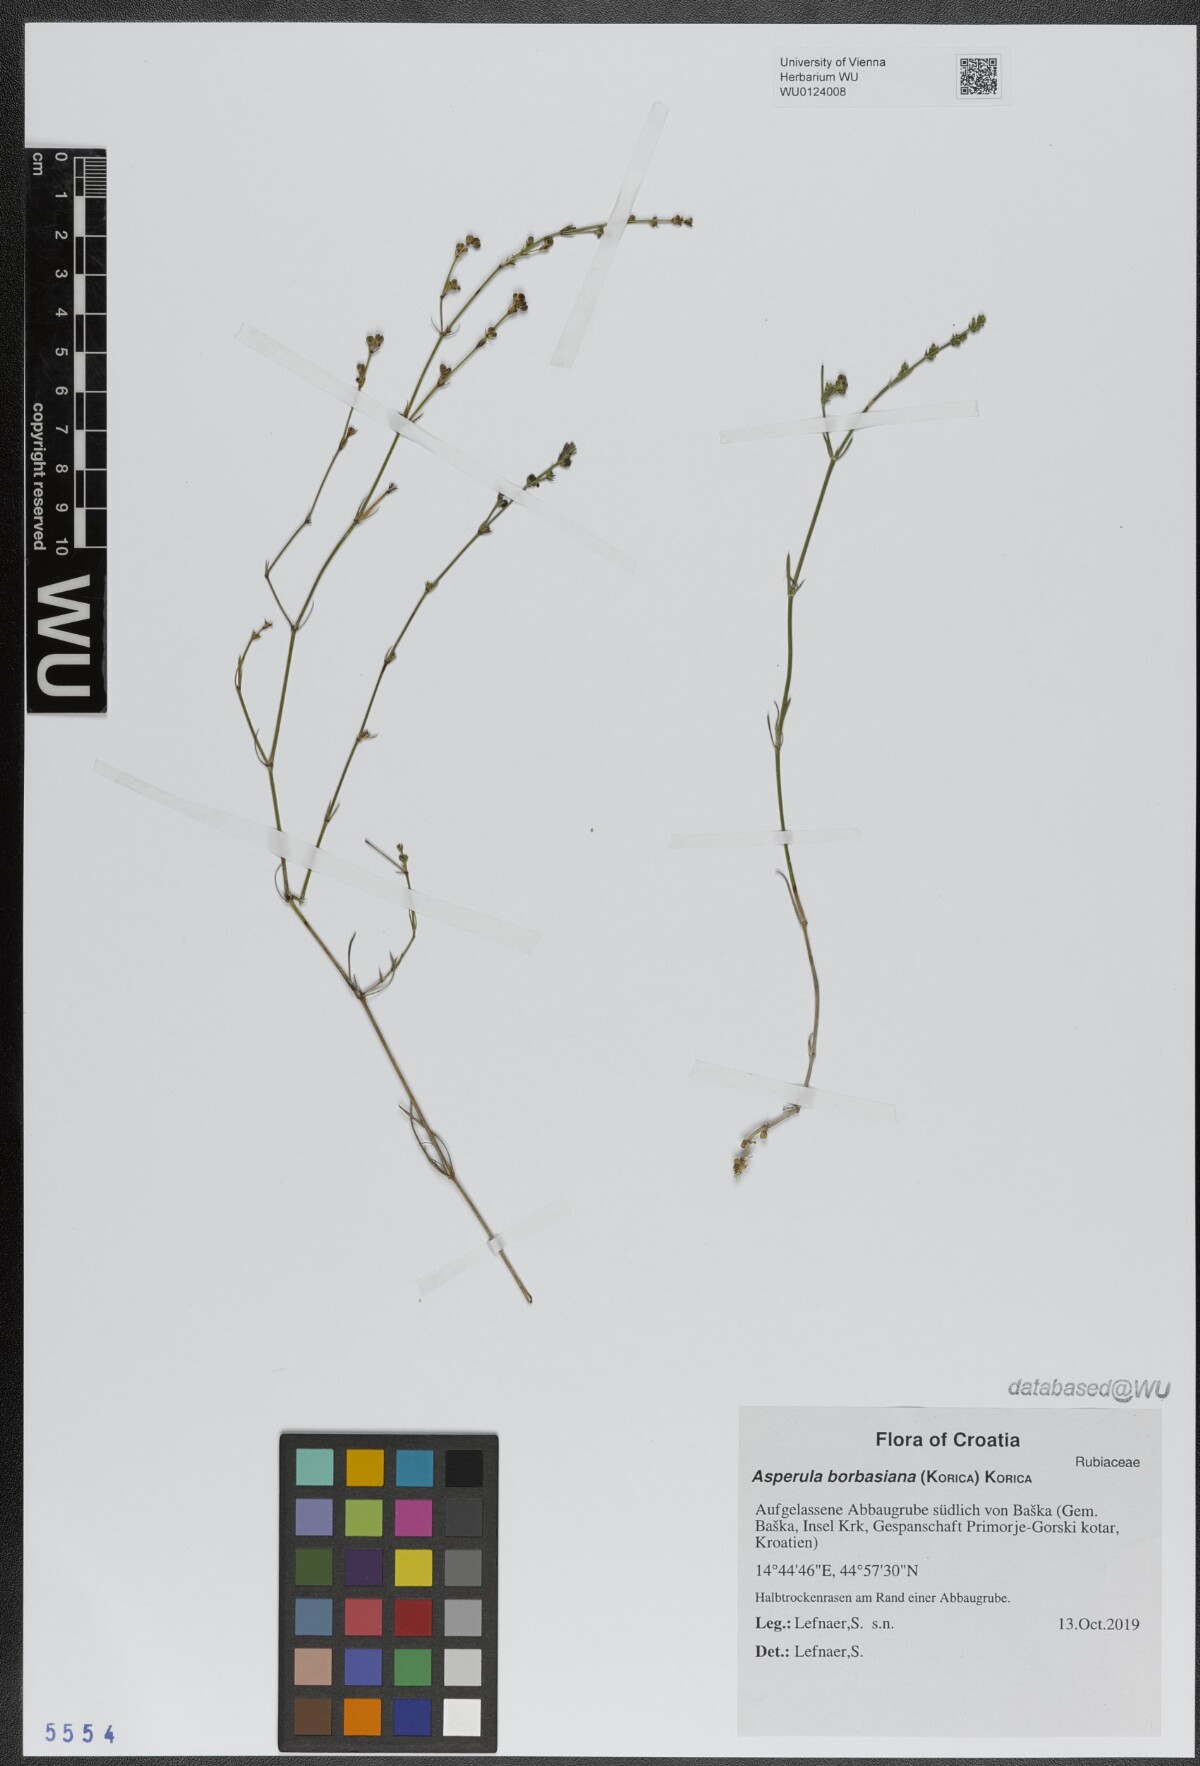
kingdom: Plantae
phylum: Tracheophyta
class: Magnoliopsida
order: Gentianales
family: Rubiaceae
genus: Cynanchica
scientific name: Cynanchica borbasiana
